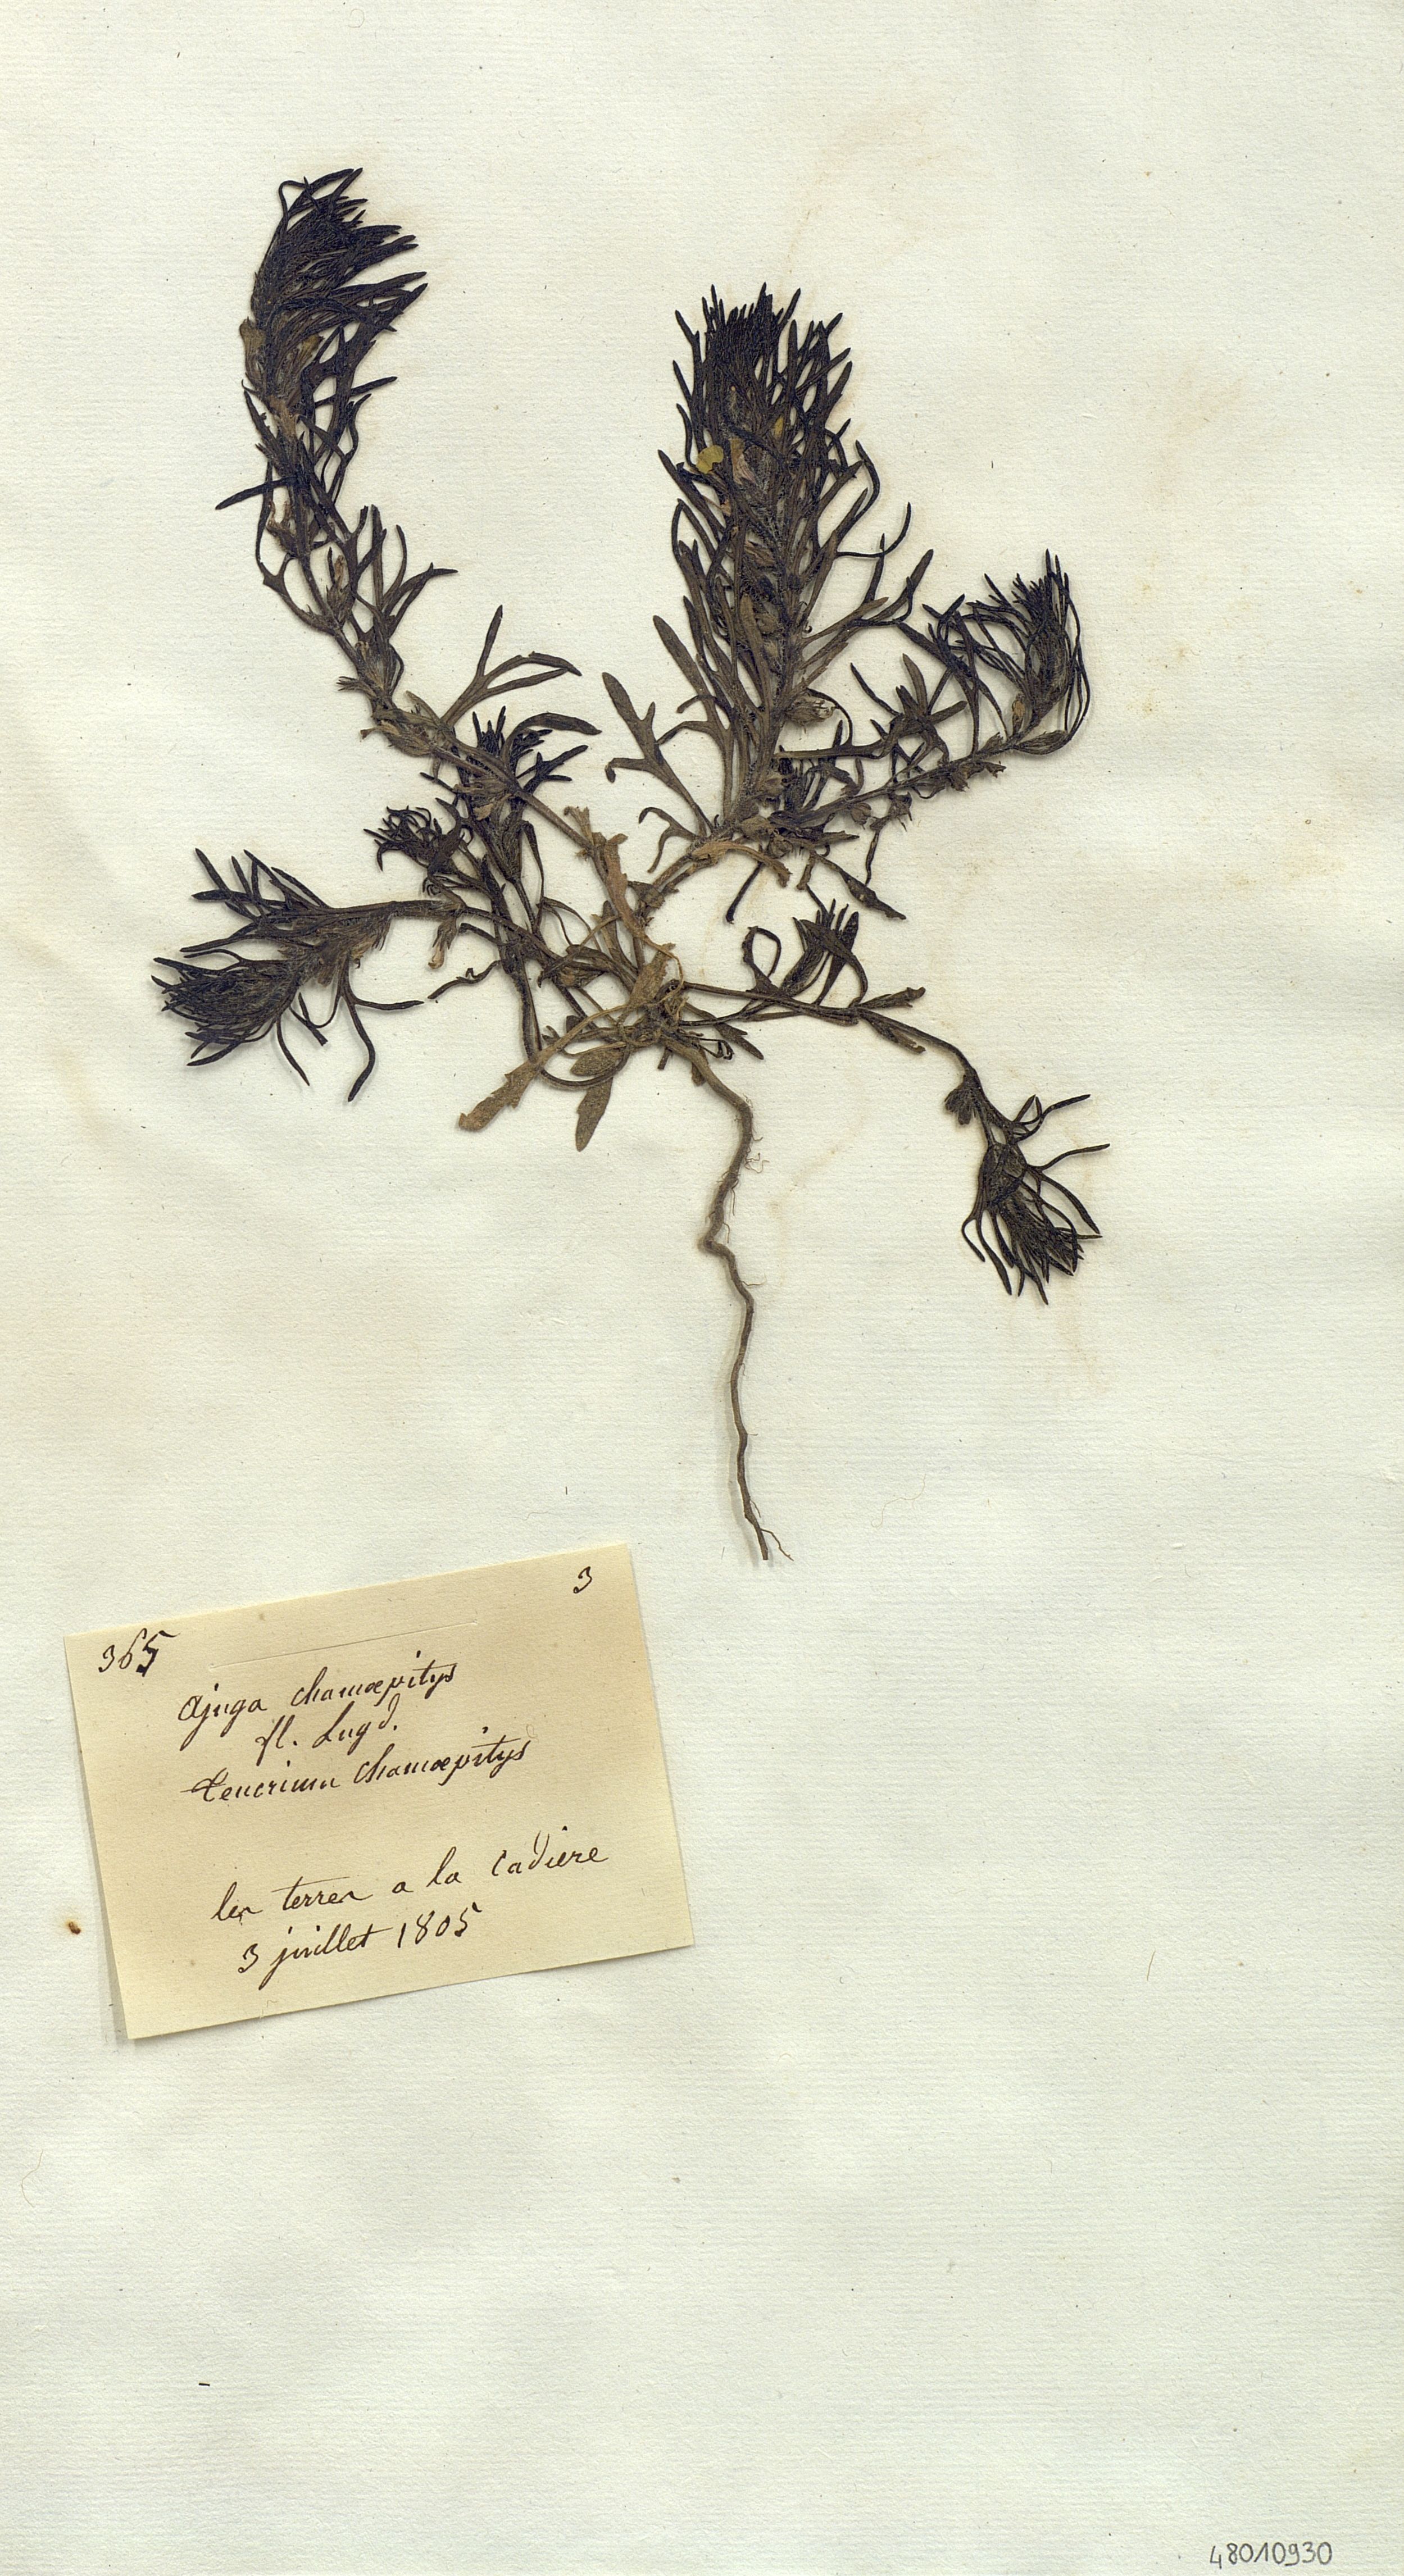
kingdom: Plantae
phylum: Tracheophyta
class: Magnoliopsida
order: Lamiales
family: Lamiaceae
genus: Ajuga
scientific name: Ajuga chamaepitys
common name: Ground-pine
